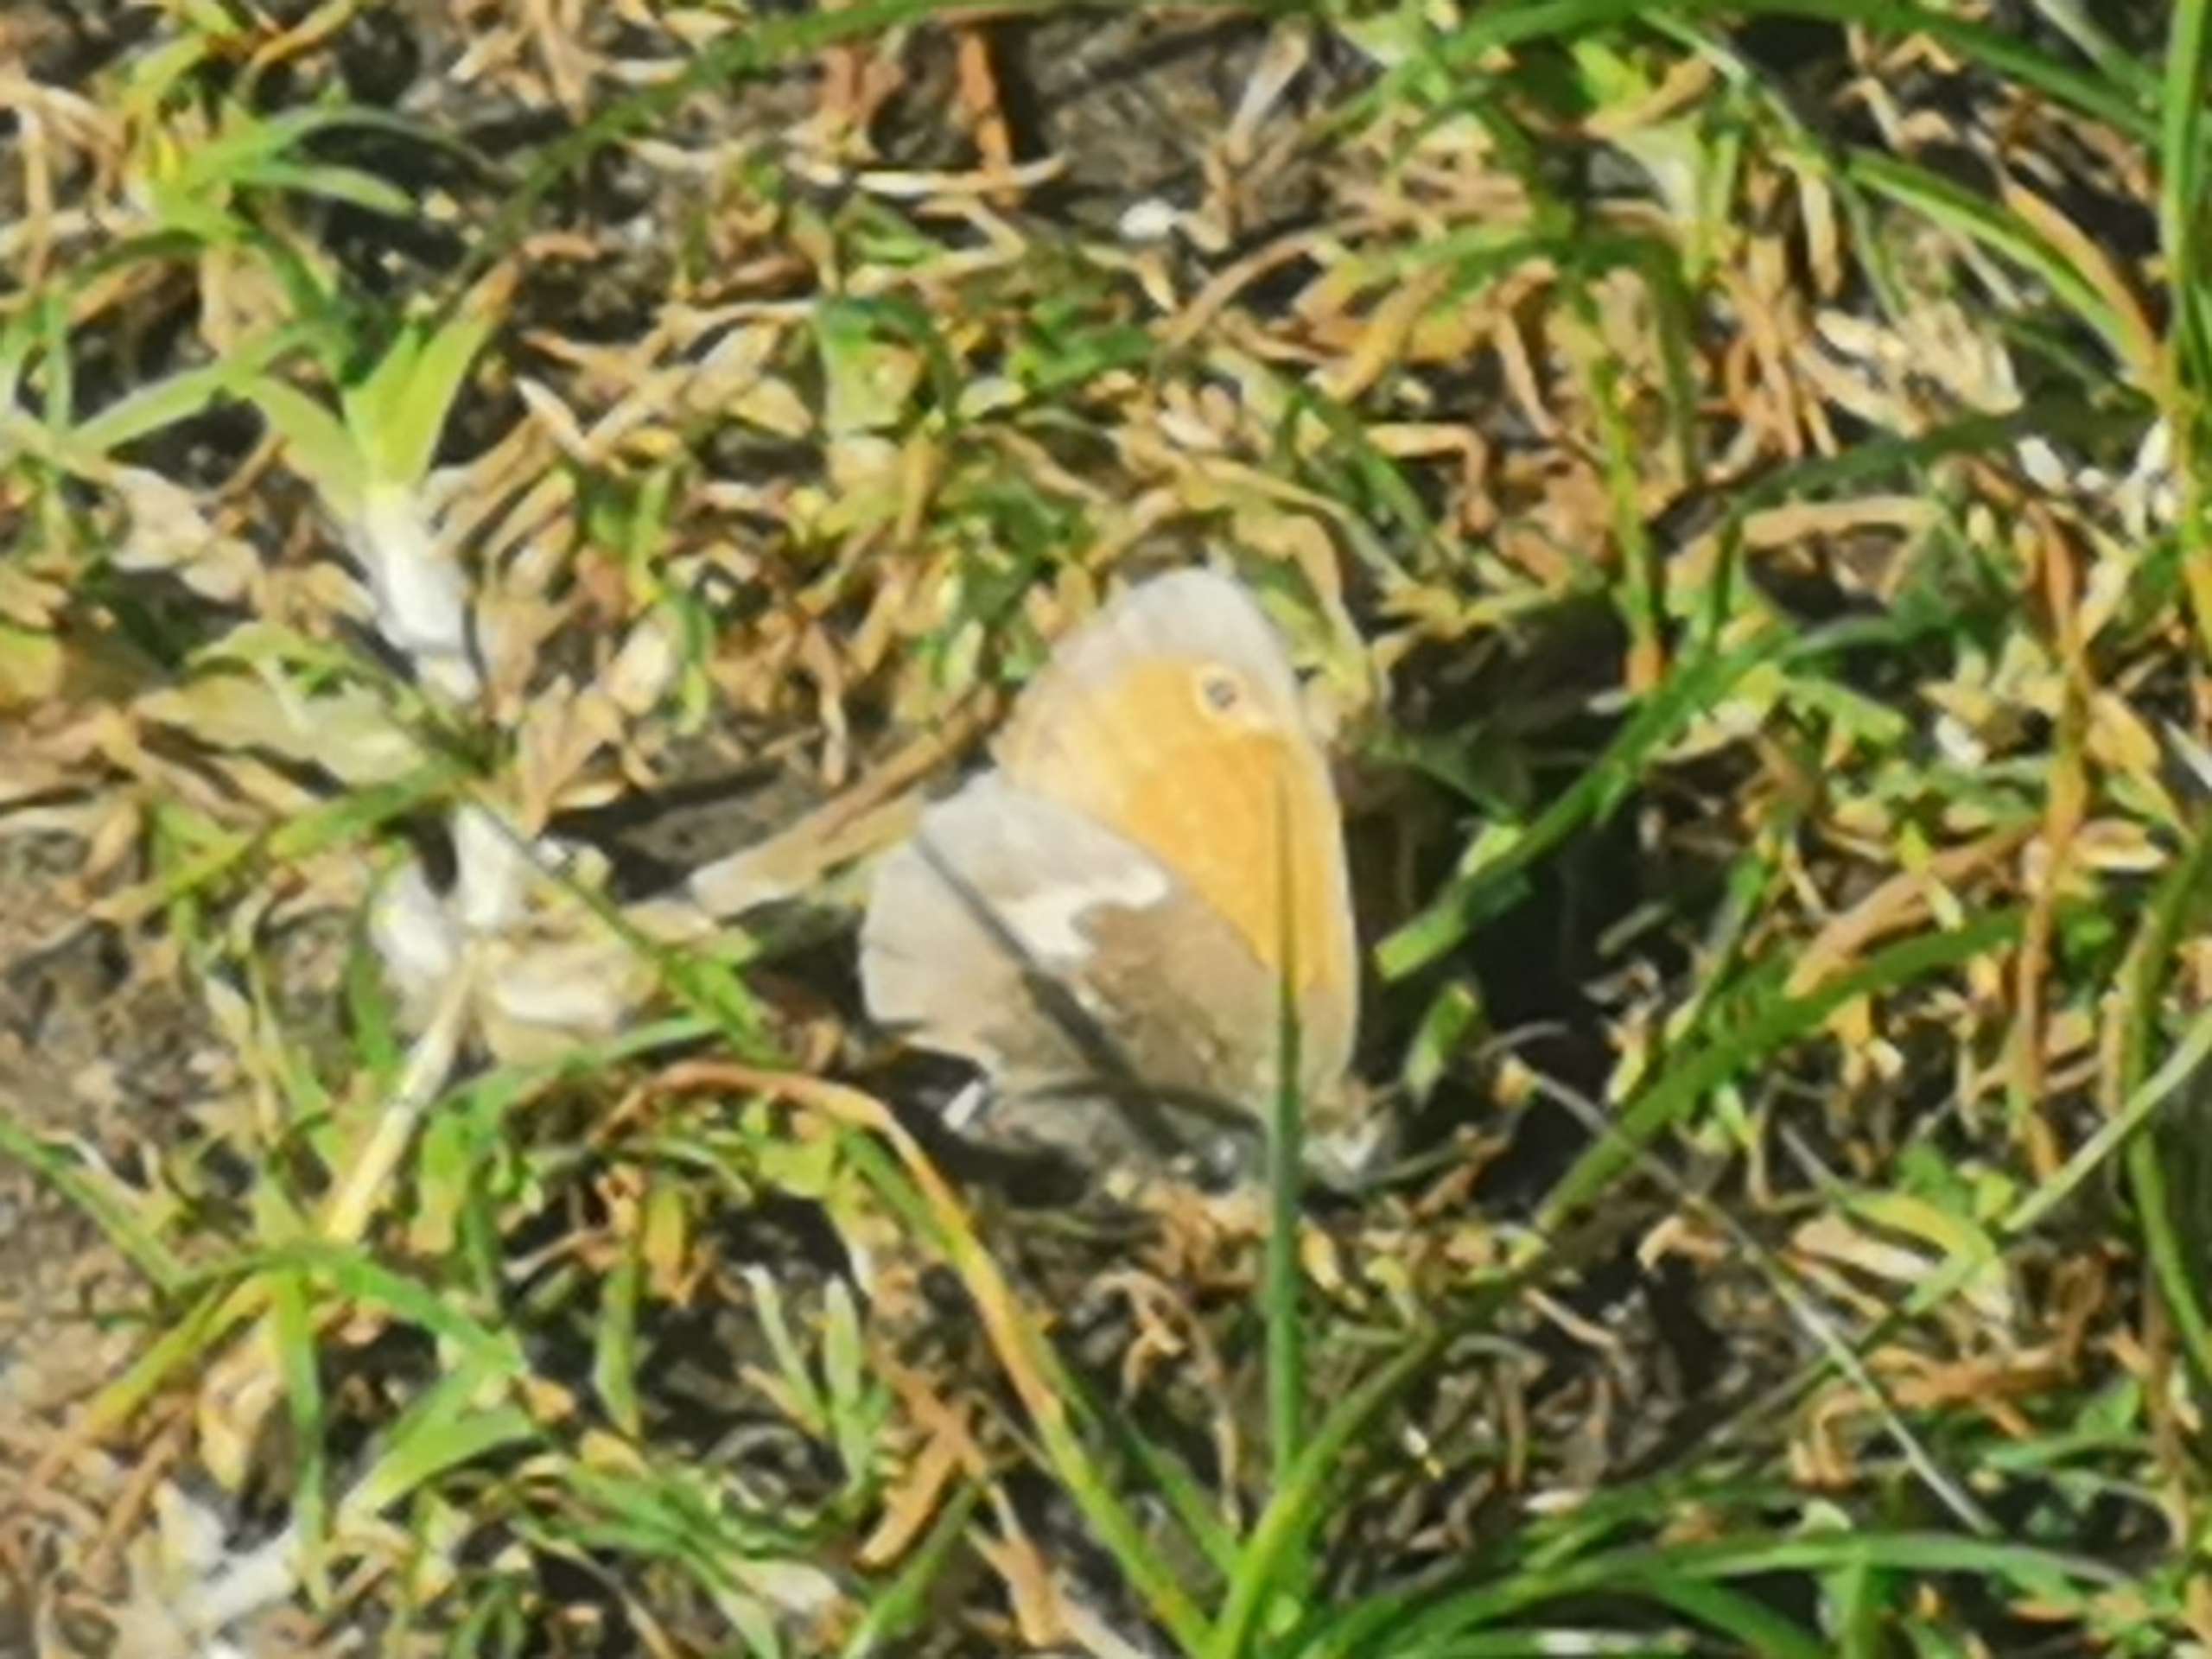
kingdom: Animalia
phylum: Arthropoda
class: Insecta
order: Lepidoptera
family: Nymphalidae
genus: Coenonympha
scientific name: Coenonympha pamphilus
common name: Okkergul randøje
